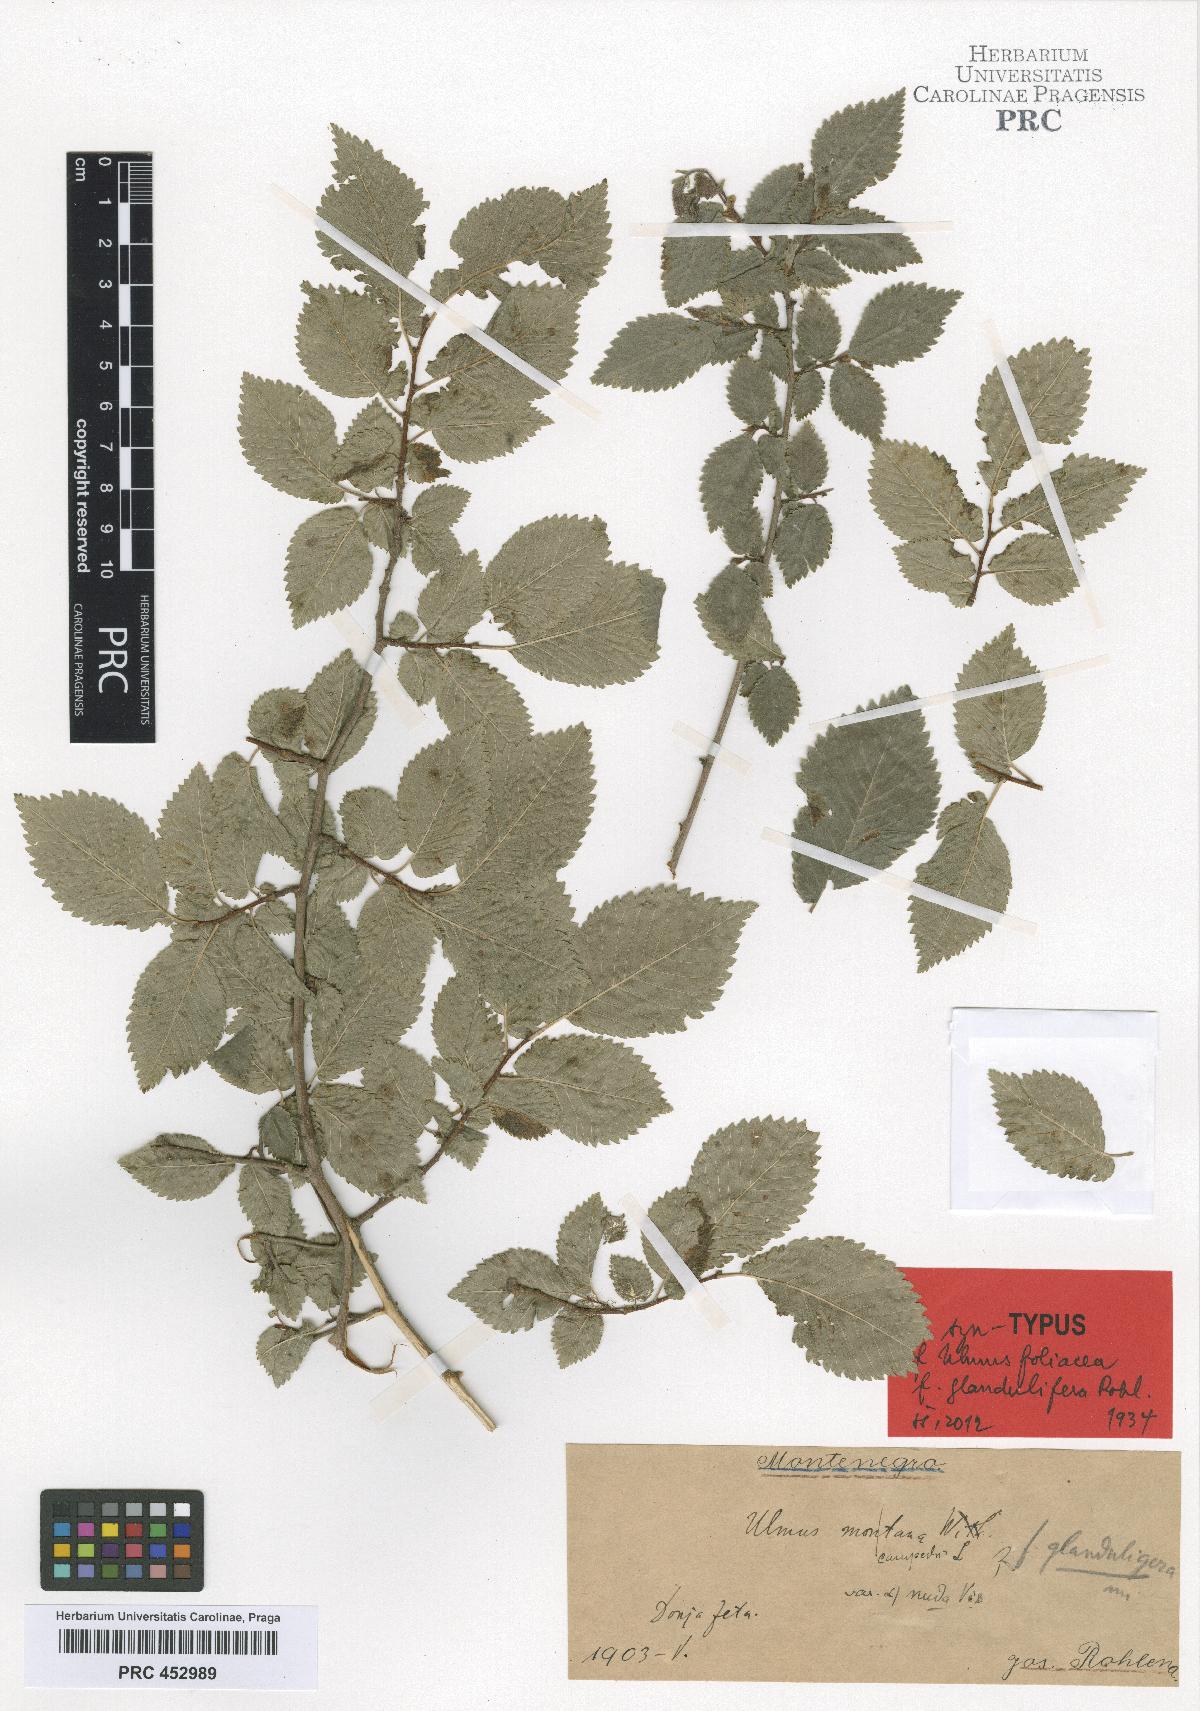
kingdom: Plantae
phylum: Tracheophyta
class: Magnoliopsida
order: Rosales
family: Ulmaceae
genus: Ulmus
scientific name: Ulmus minor
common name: Small-leaved elm
